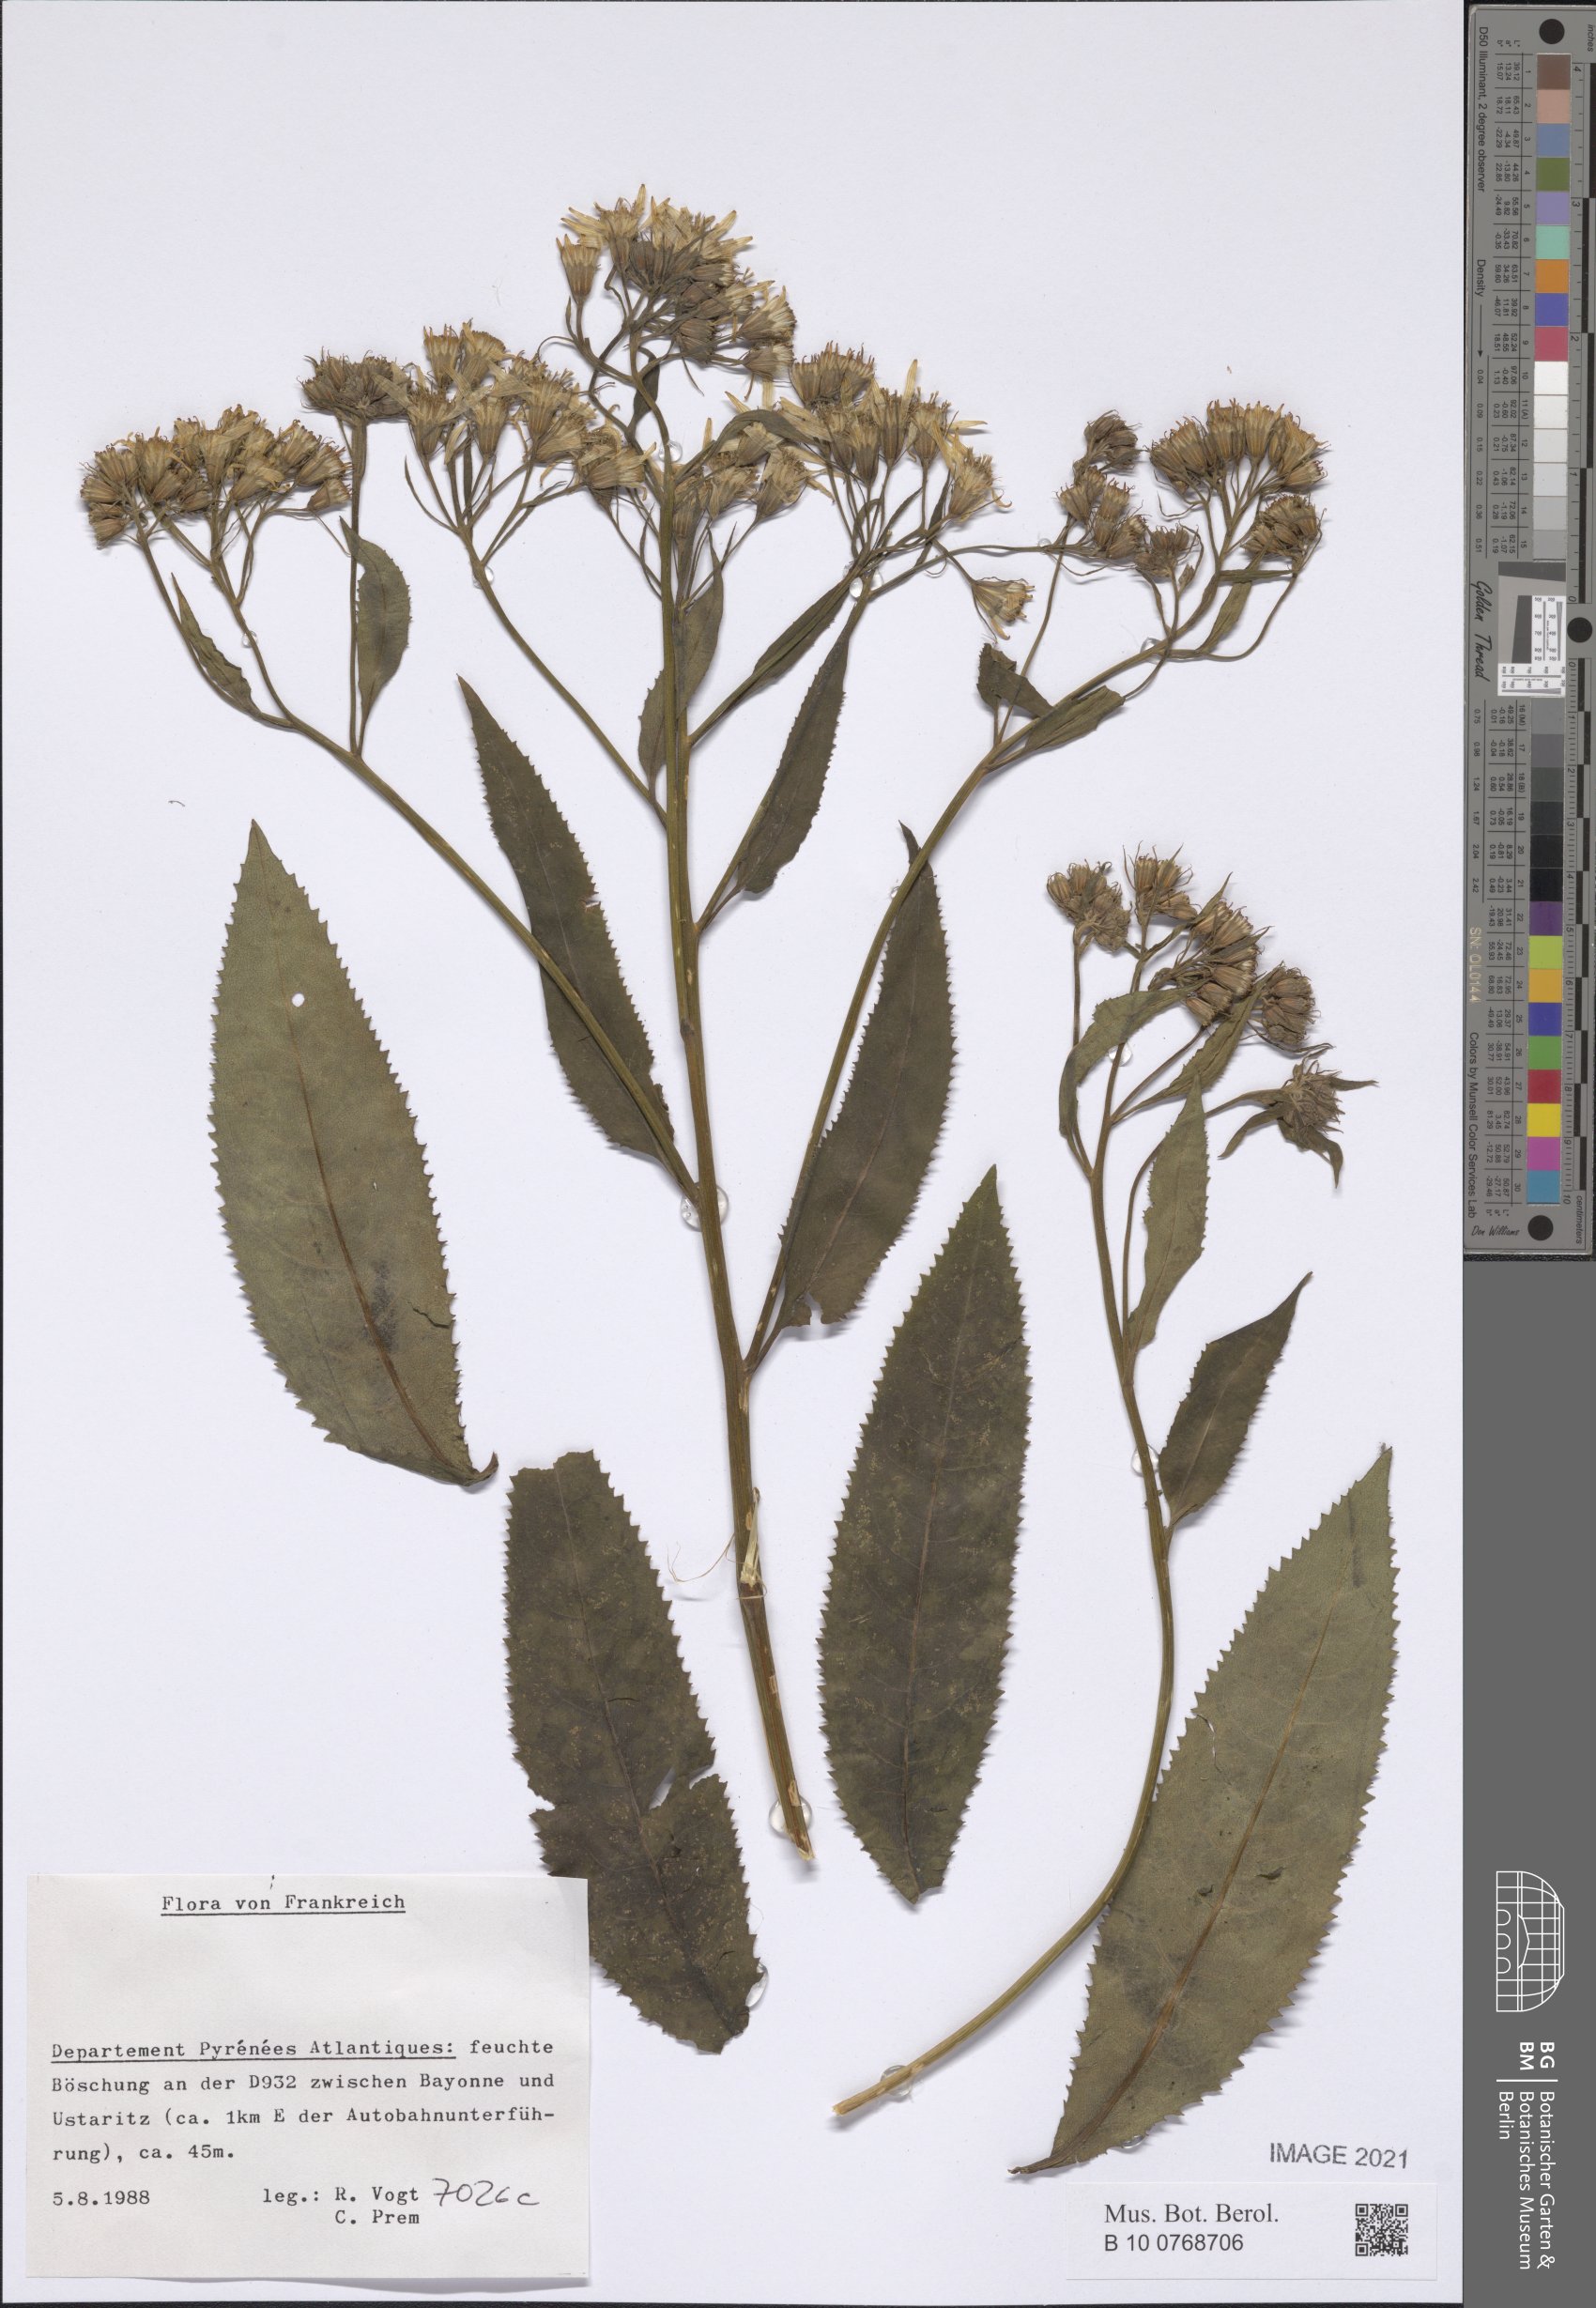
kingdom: Plantae
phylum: Tracheophyta
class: Magnoliopsida
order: Asterales
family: Asteraceae
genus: Senecio
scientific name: Senecio
